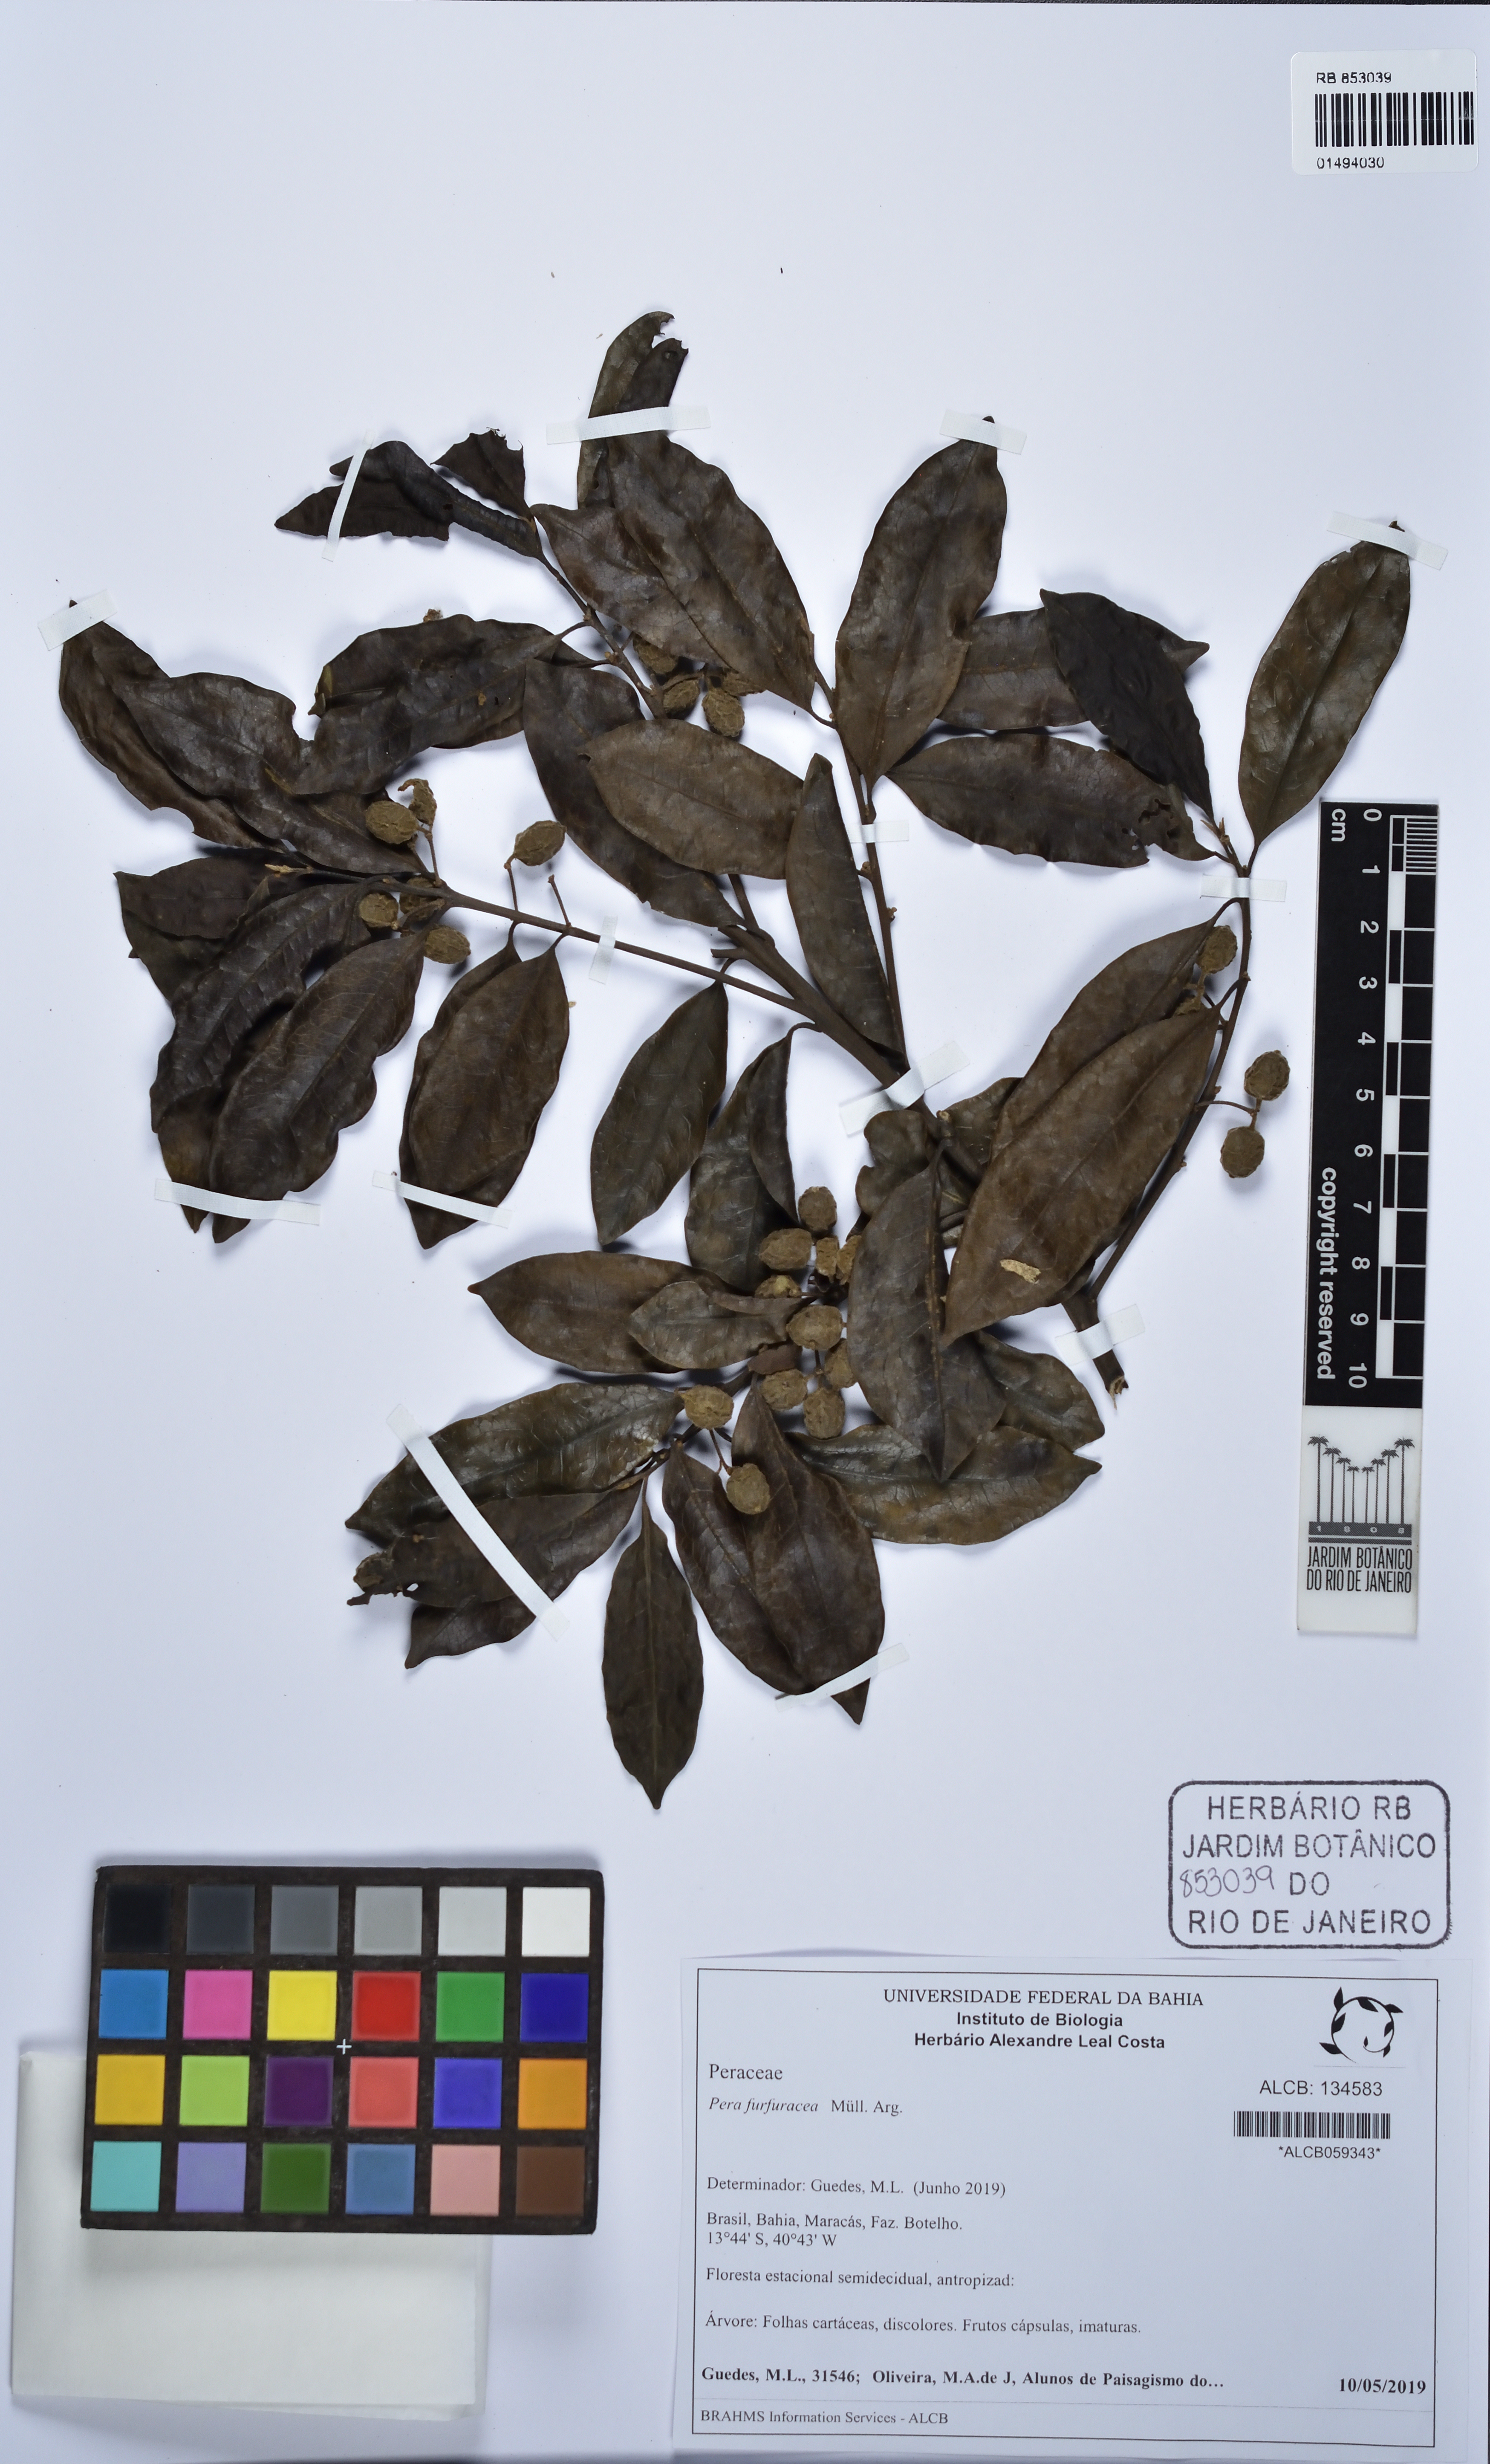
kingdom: Plantae
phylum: Tracheophyta
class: Magnoliopsida
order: Malpighiales
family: Peraceae
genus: Pera
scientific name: Pera furfuracea
